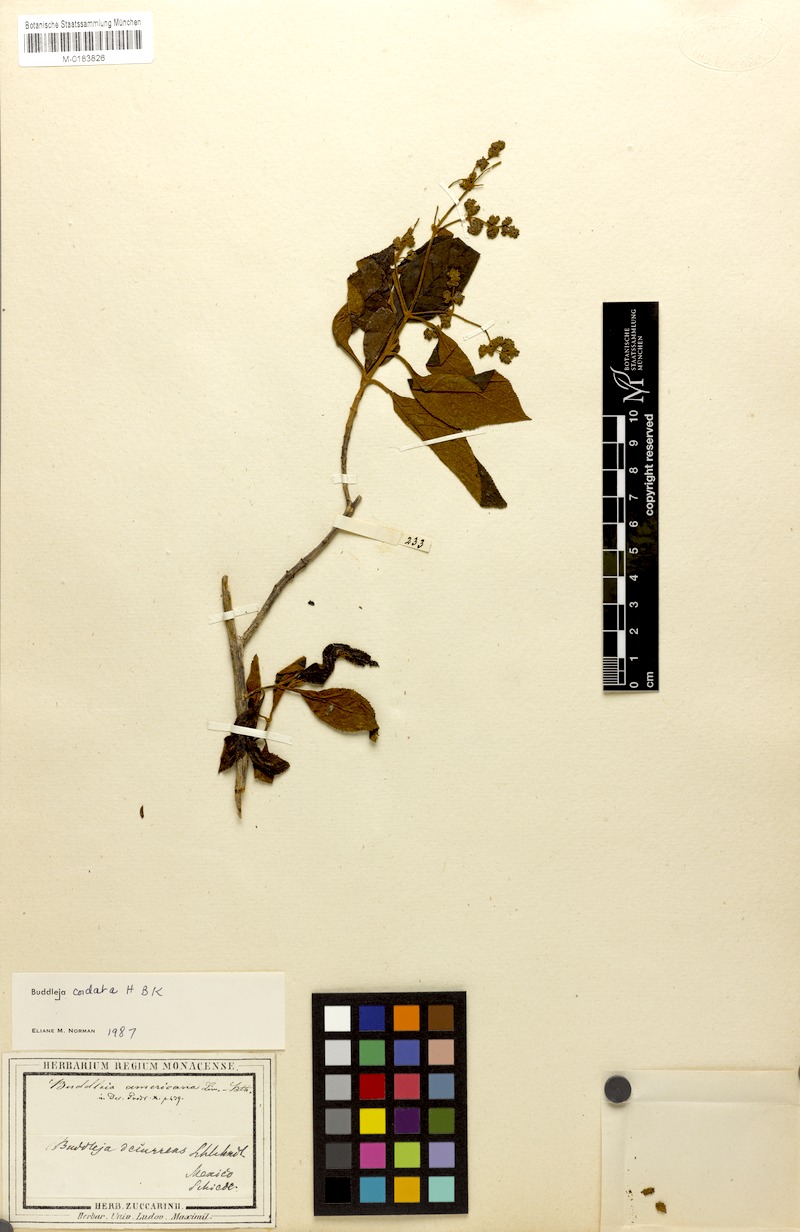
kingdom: Plantae
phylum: Tracheophyta
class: Magnoliopsida
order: Lamiales
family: Scrophulariaceae
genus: Buddleja
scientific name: Buddleja cordata
